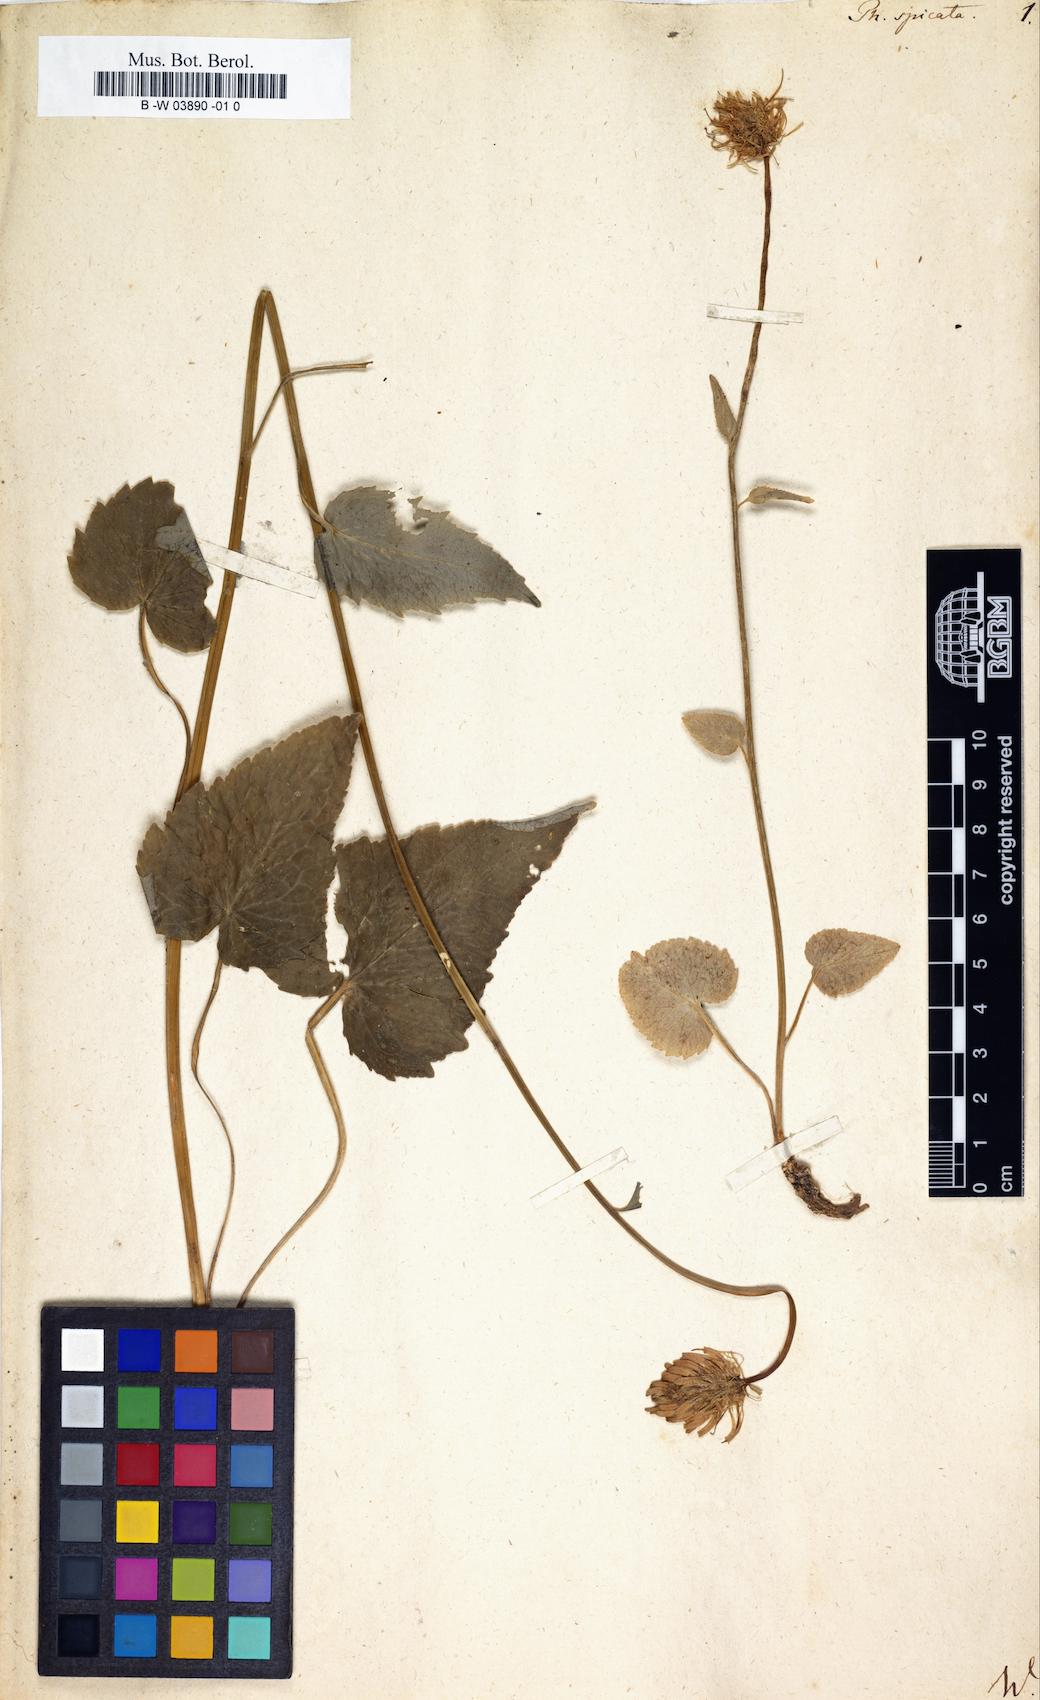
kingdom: Plantae
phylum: Tracheophyta
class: Magnoliopsida
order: Asterales
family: Campanulaceae
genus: Phyteuma
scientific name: Phyteuma spicatum
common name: Spiked rampion
